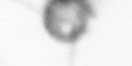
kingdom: Animalia
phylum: Arthropoda
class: Copepoda
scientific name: Copepoda
